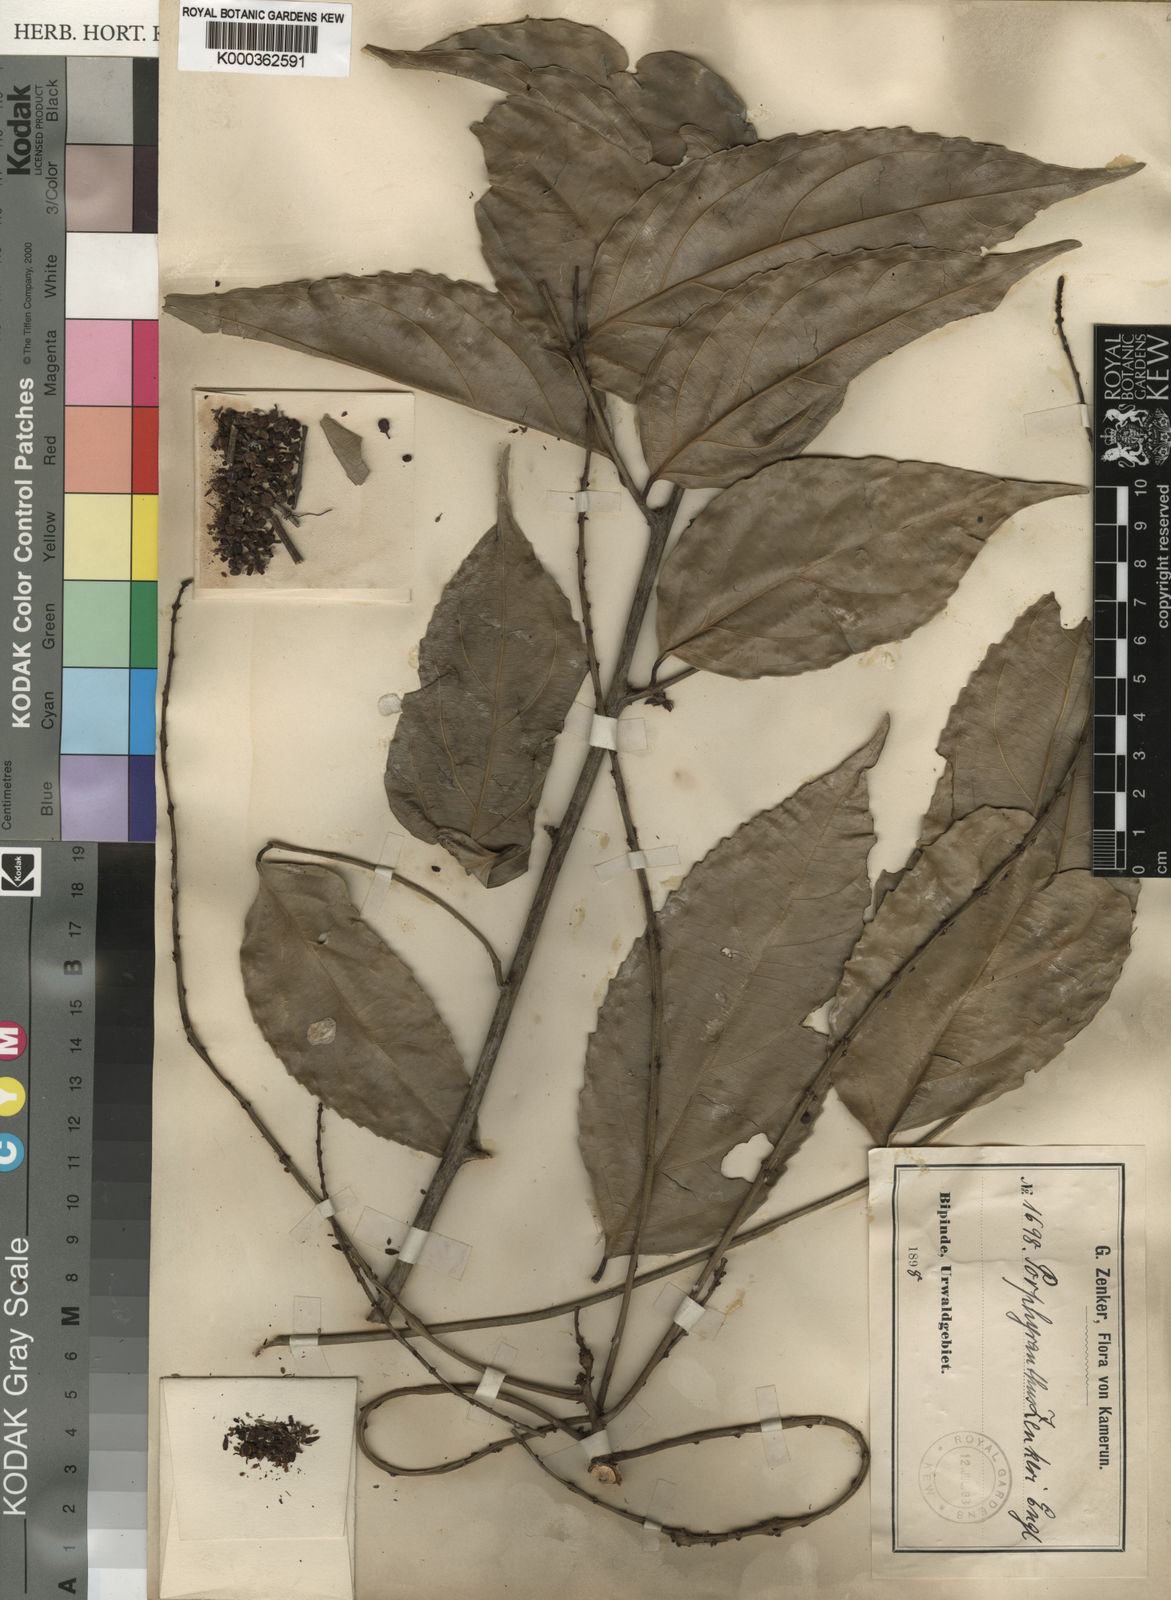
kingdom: Plantae
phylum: Tracheophyta
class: Magnoliopsida
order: Malpighiales
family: Pandaceae
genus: Microdesmis
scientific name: Microdesmis
